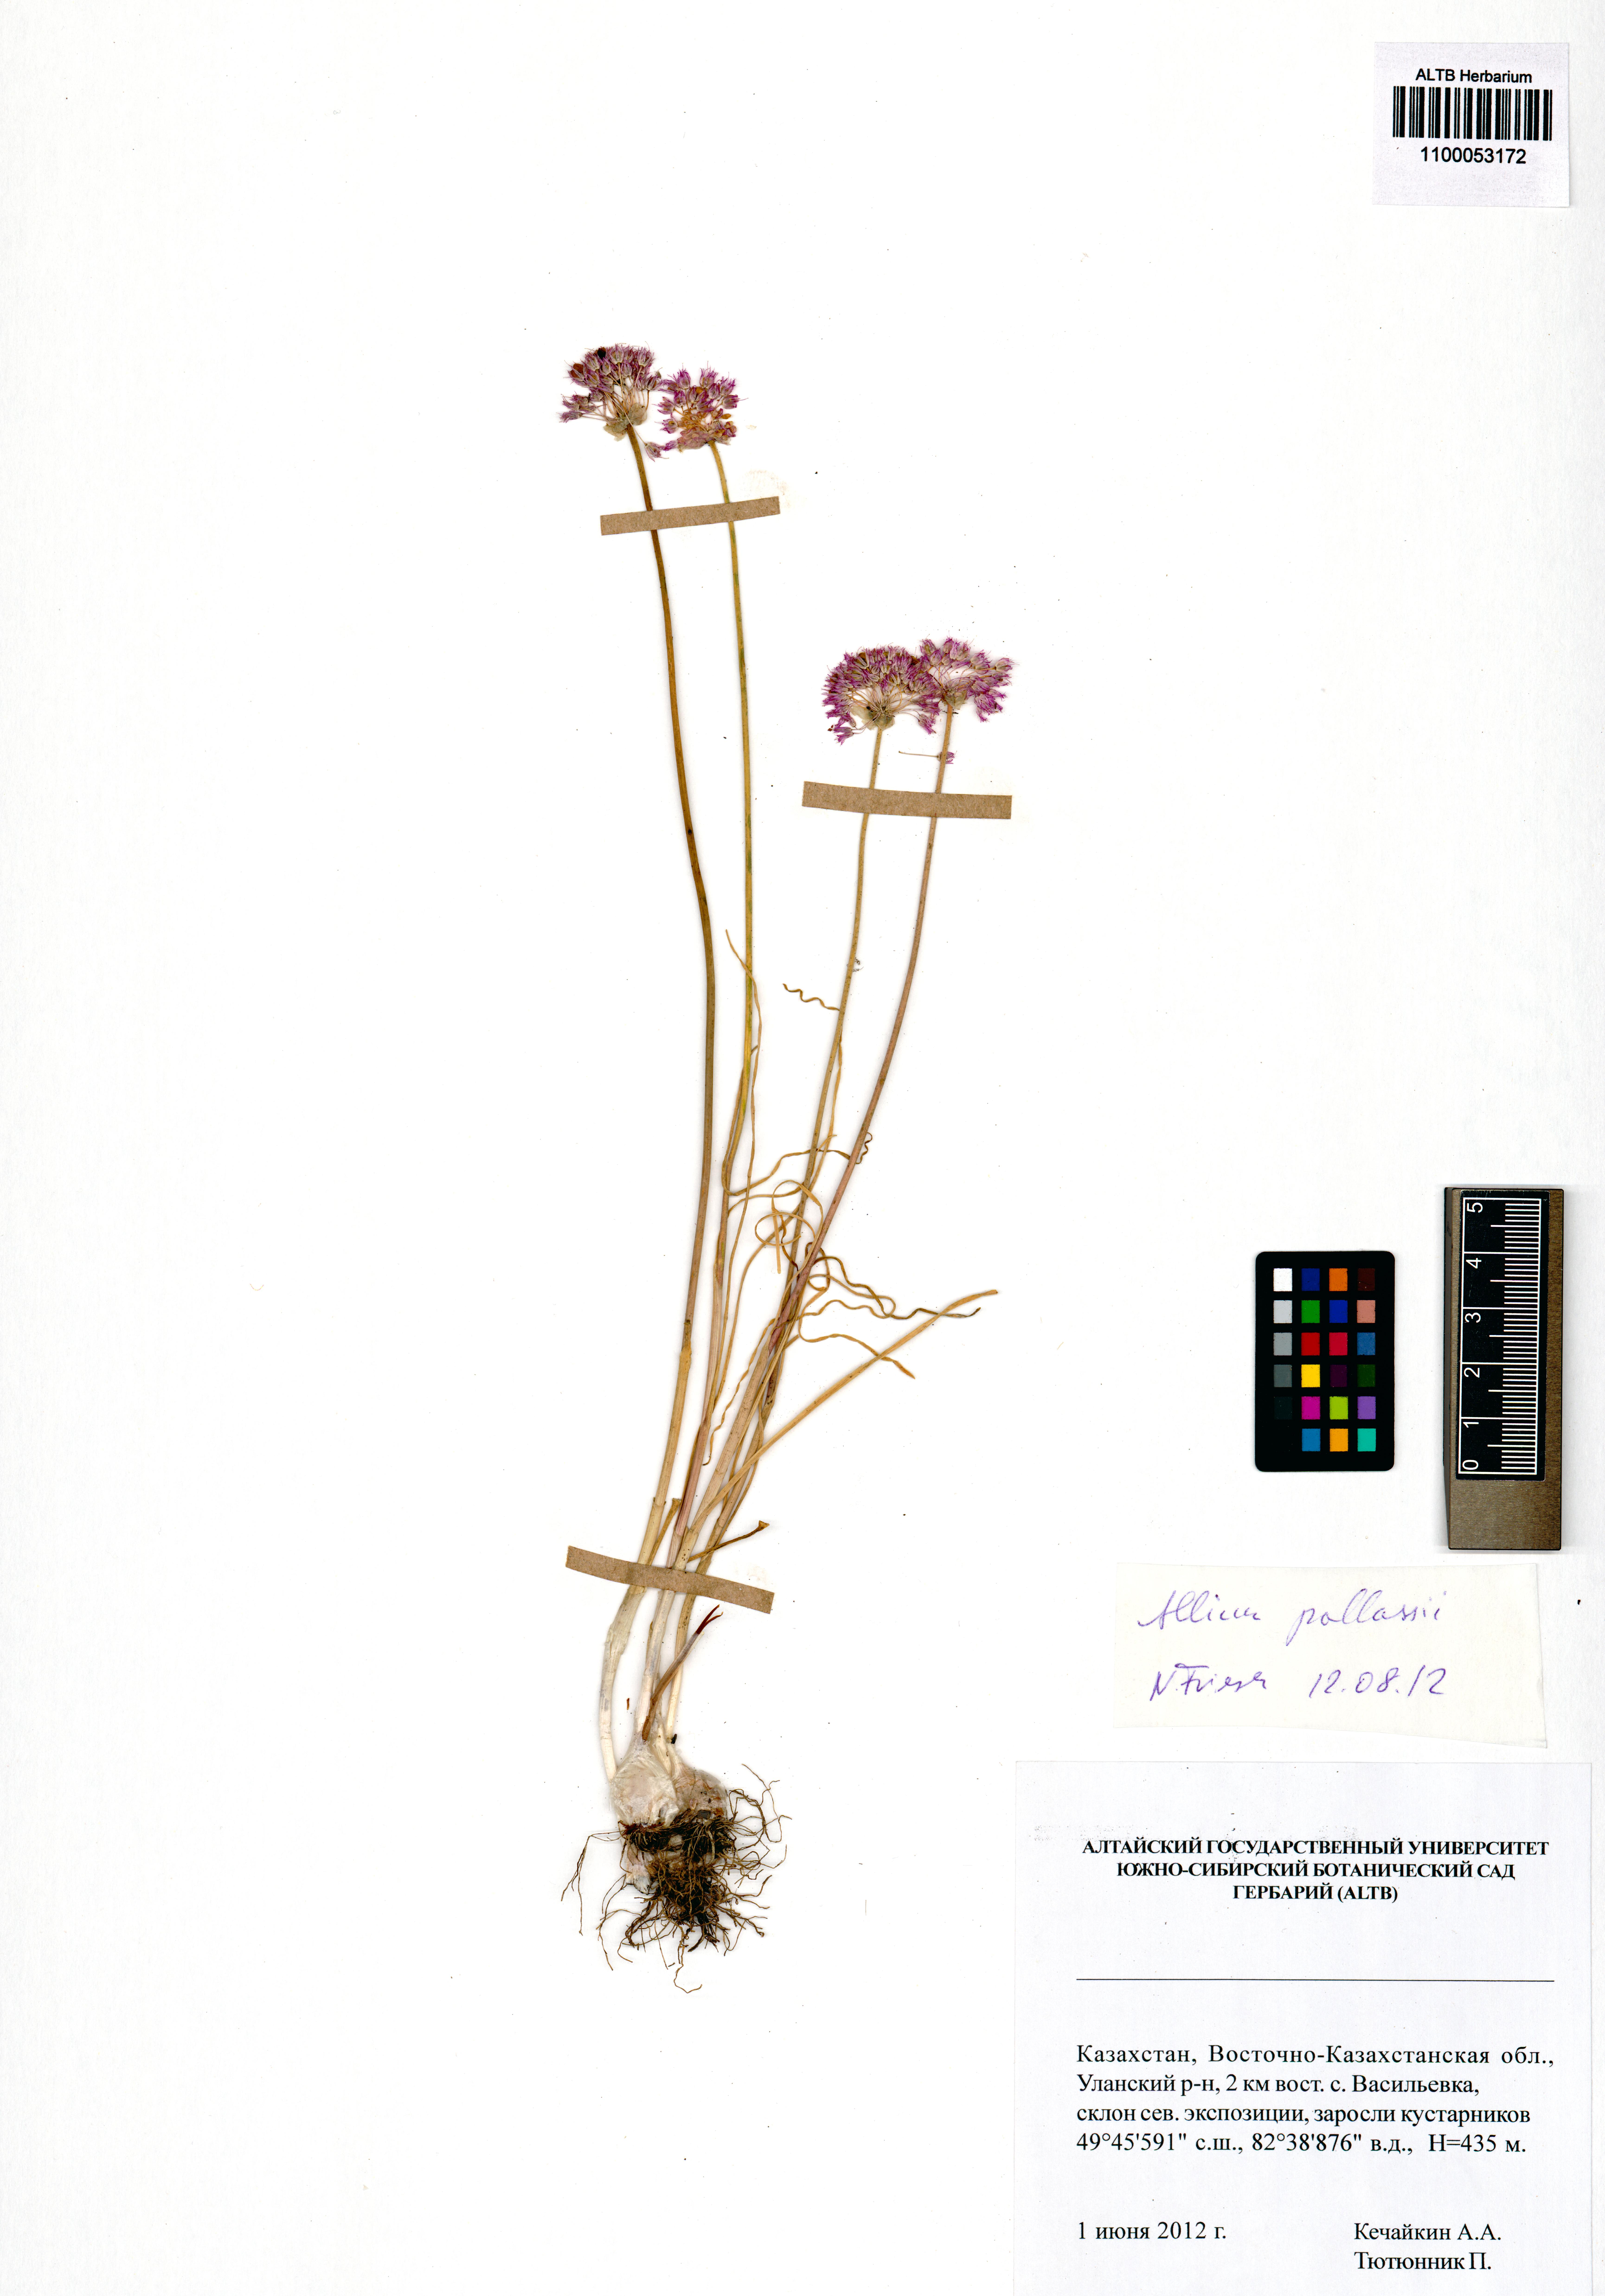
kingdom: Plantae
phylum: Tracheophyta
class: Liliopsida
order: Asparagales
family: Amaryllidaceae
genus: Allium
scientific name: Allium pallasii
